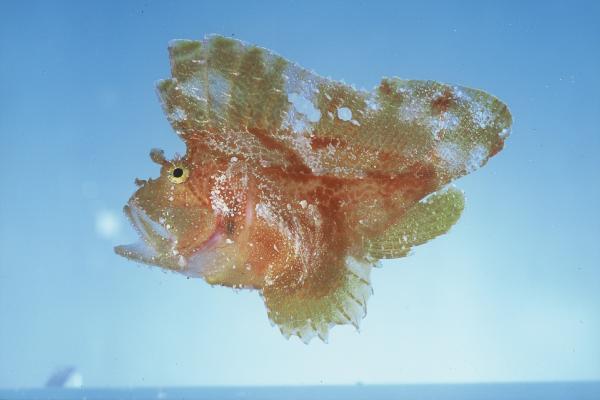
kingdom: Animalia
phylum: Chordata
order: Scorpaeniformes
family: Scorpaenidae
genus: Taenianotus
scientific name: Taenianotus triacanthus
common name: Leaf scorpionfish
